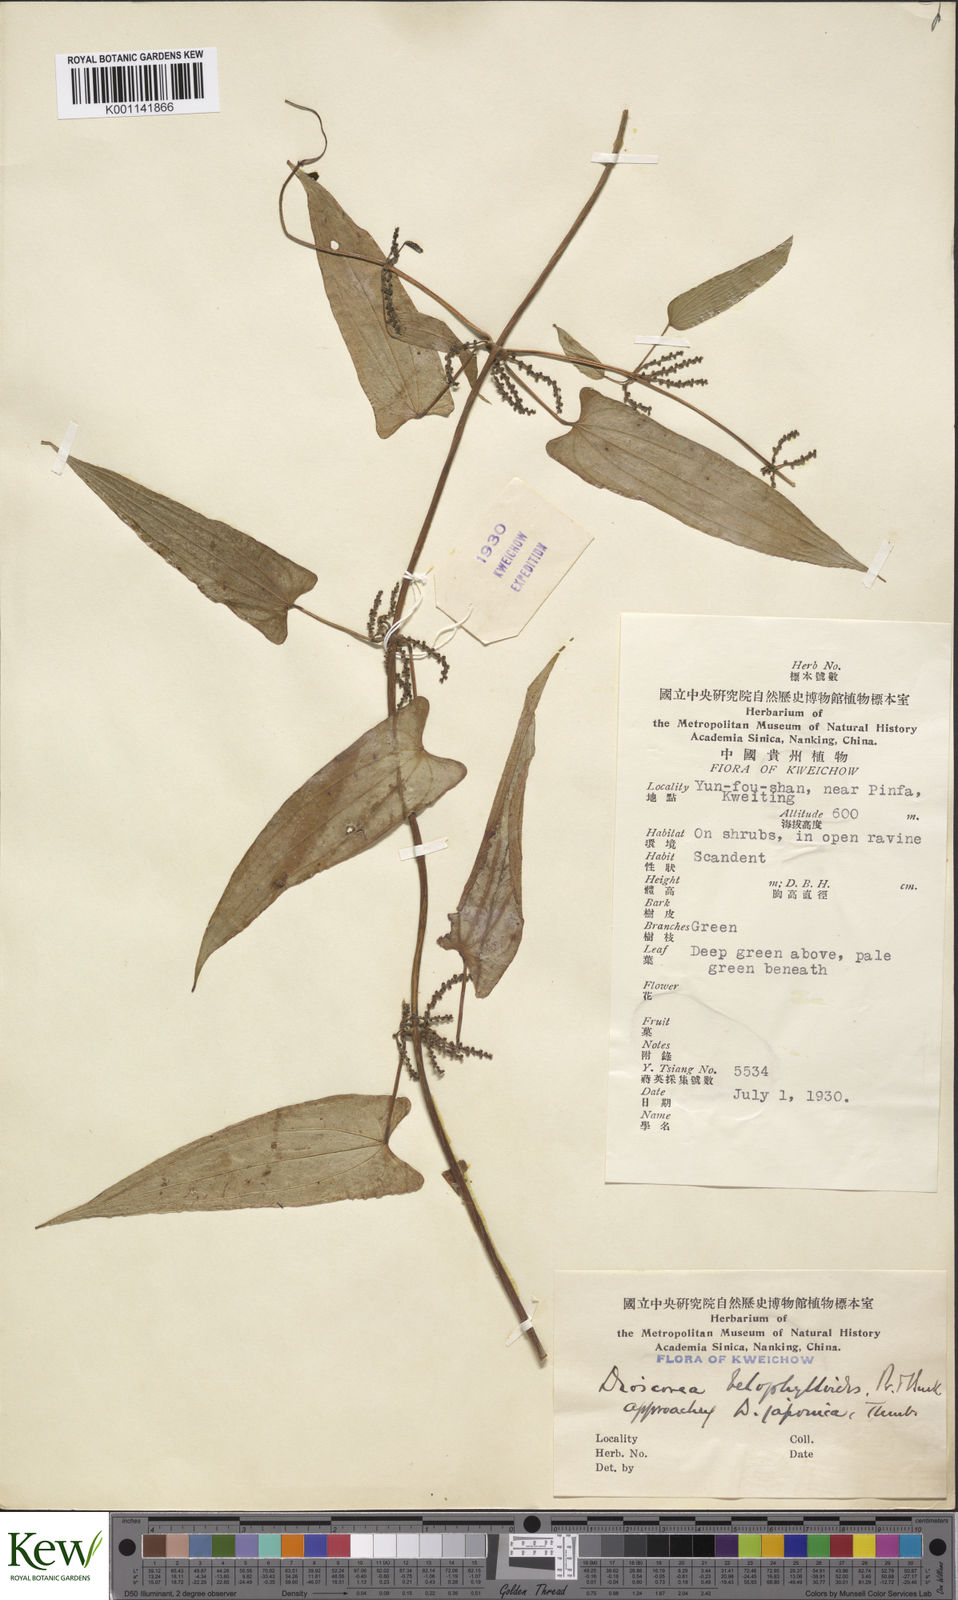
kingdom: Plantae
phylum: Tracheophyta
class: Liliopsida
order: Dioscoreales
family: Dioscoreaceae
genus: Dioscorea
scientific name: Dioscorea japonica
